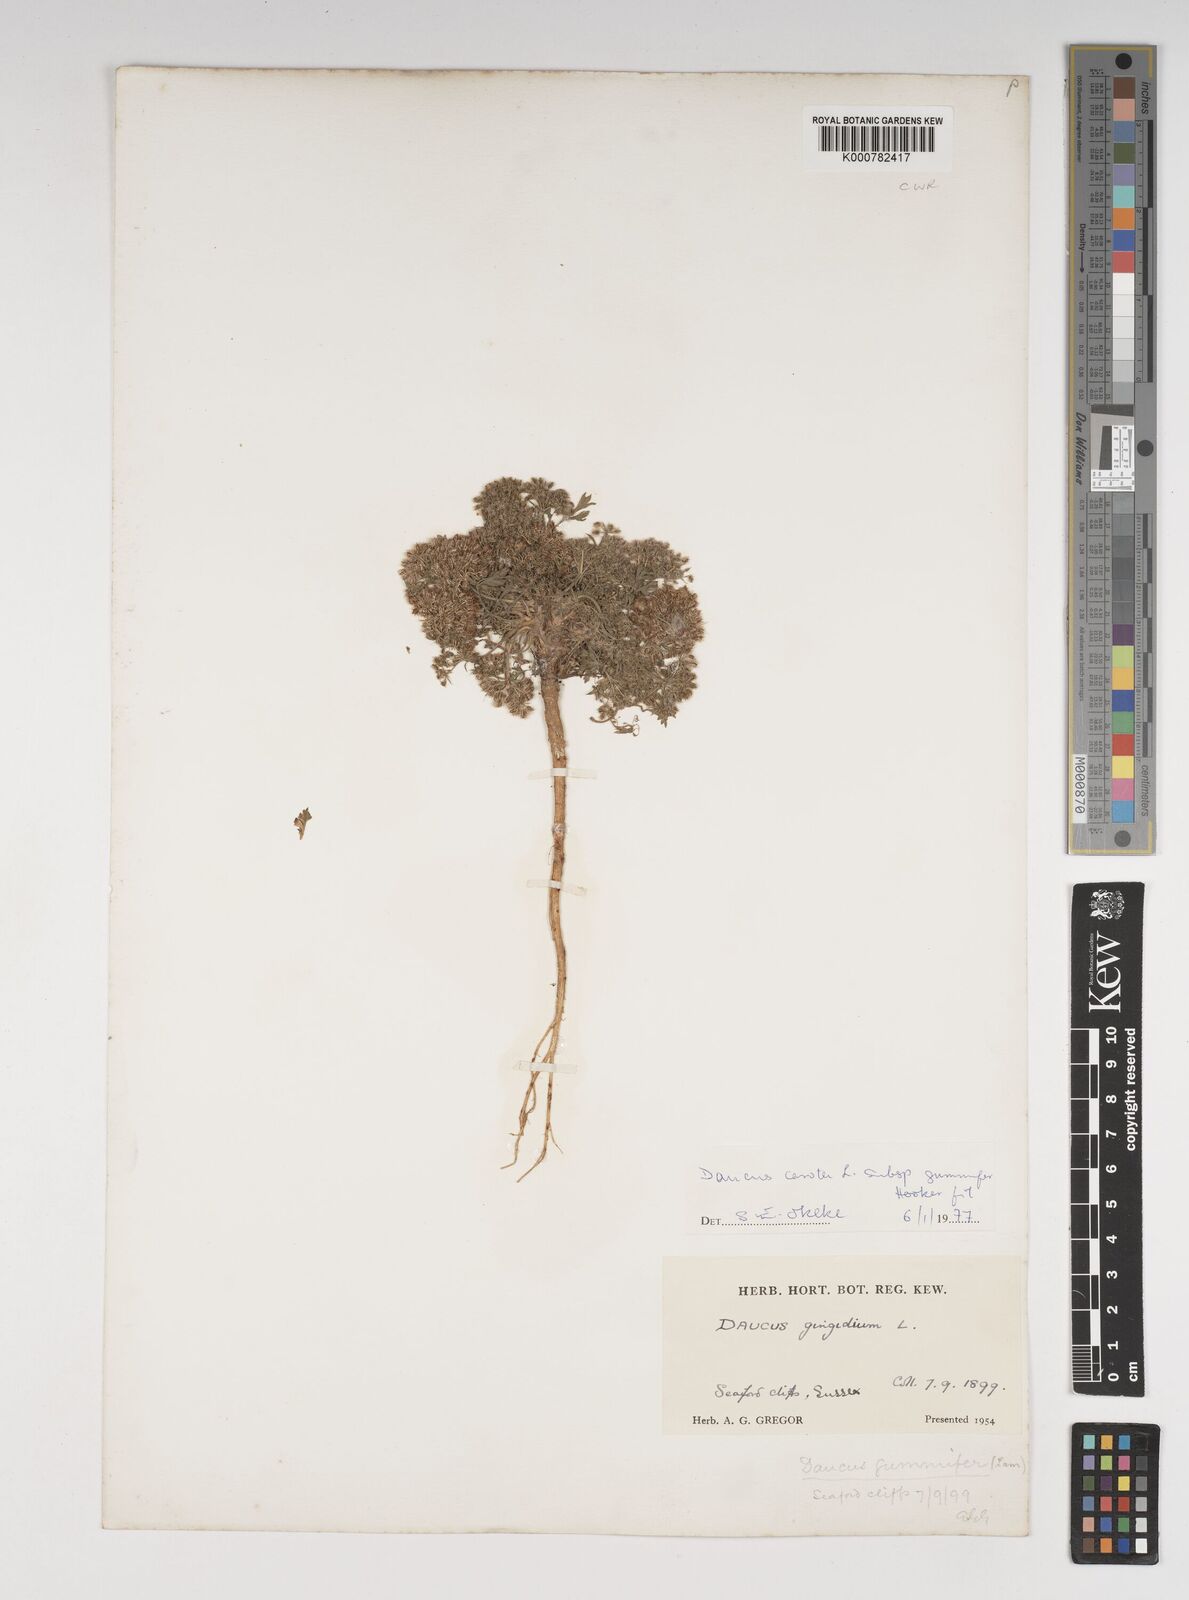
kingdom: Plantae
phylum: Tracheophyta
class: Magnoliopsida
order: Apiales
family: Apiaceae
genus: Daucus
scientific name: Daucus carota
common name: Wild carrot
